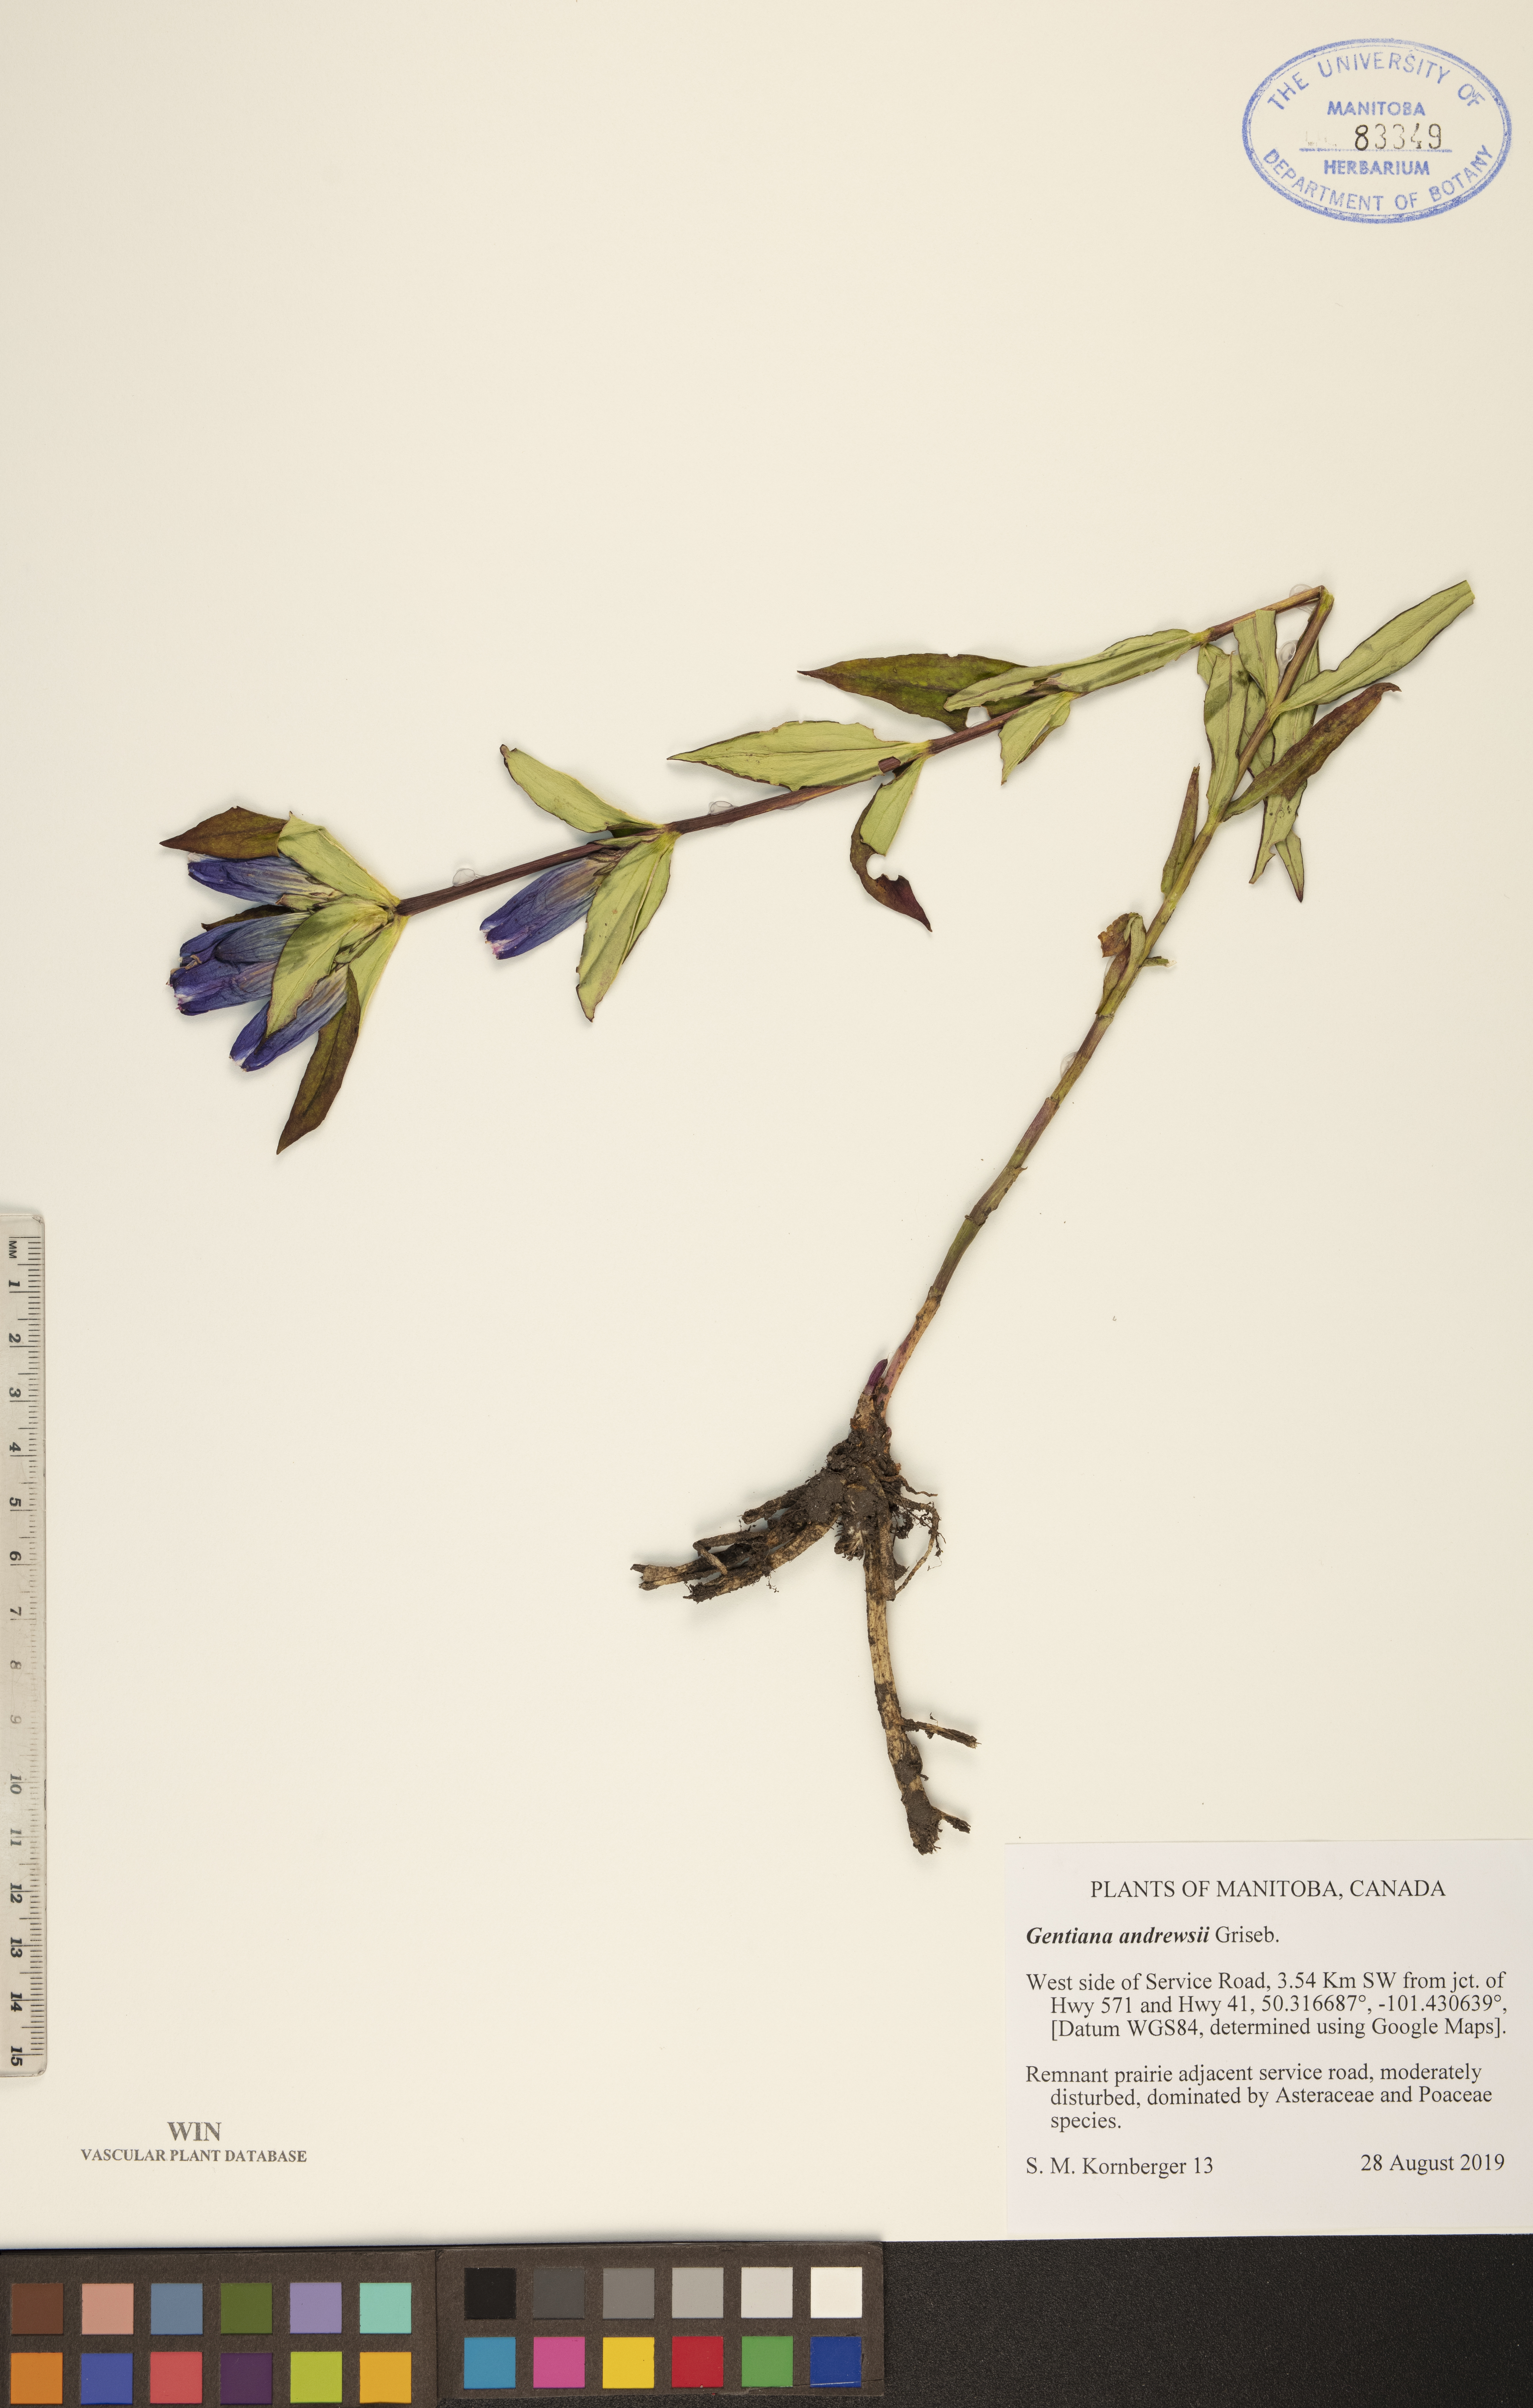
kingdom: Plantae
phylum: Tracheophyta
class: Magnoliopsida
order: Gentianales
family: Gentianaceae
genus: Gentiana
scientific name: Gentiana andrewsii
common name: Bottle gentian
